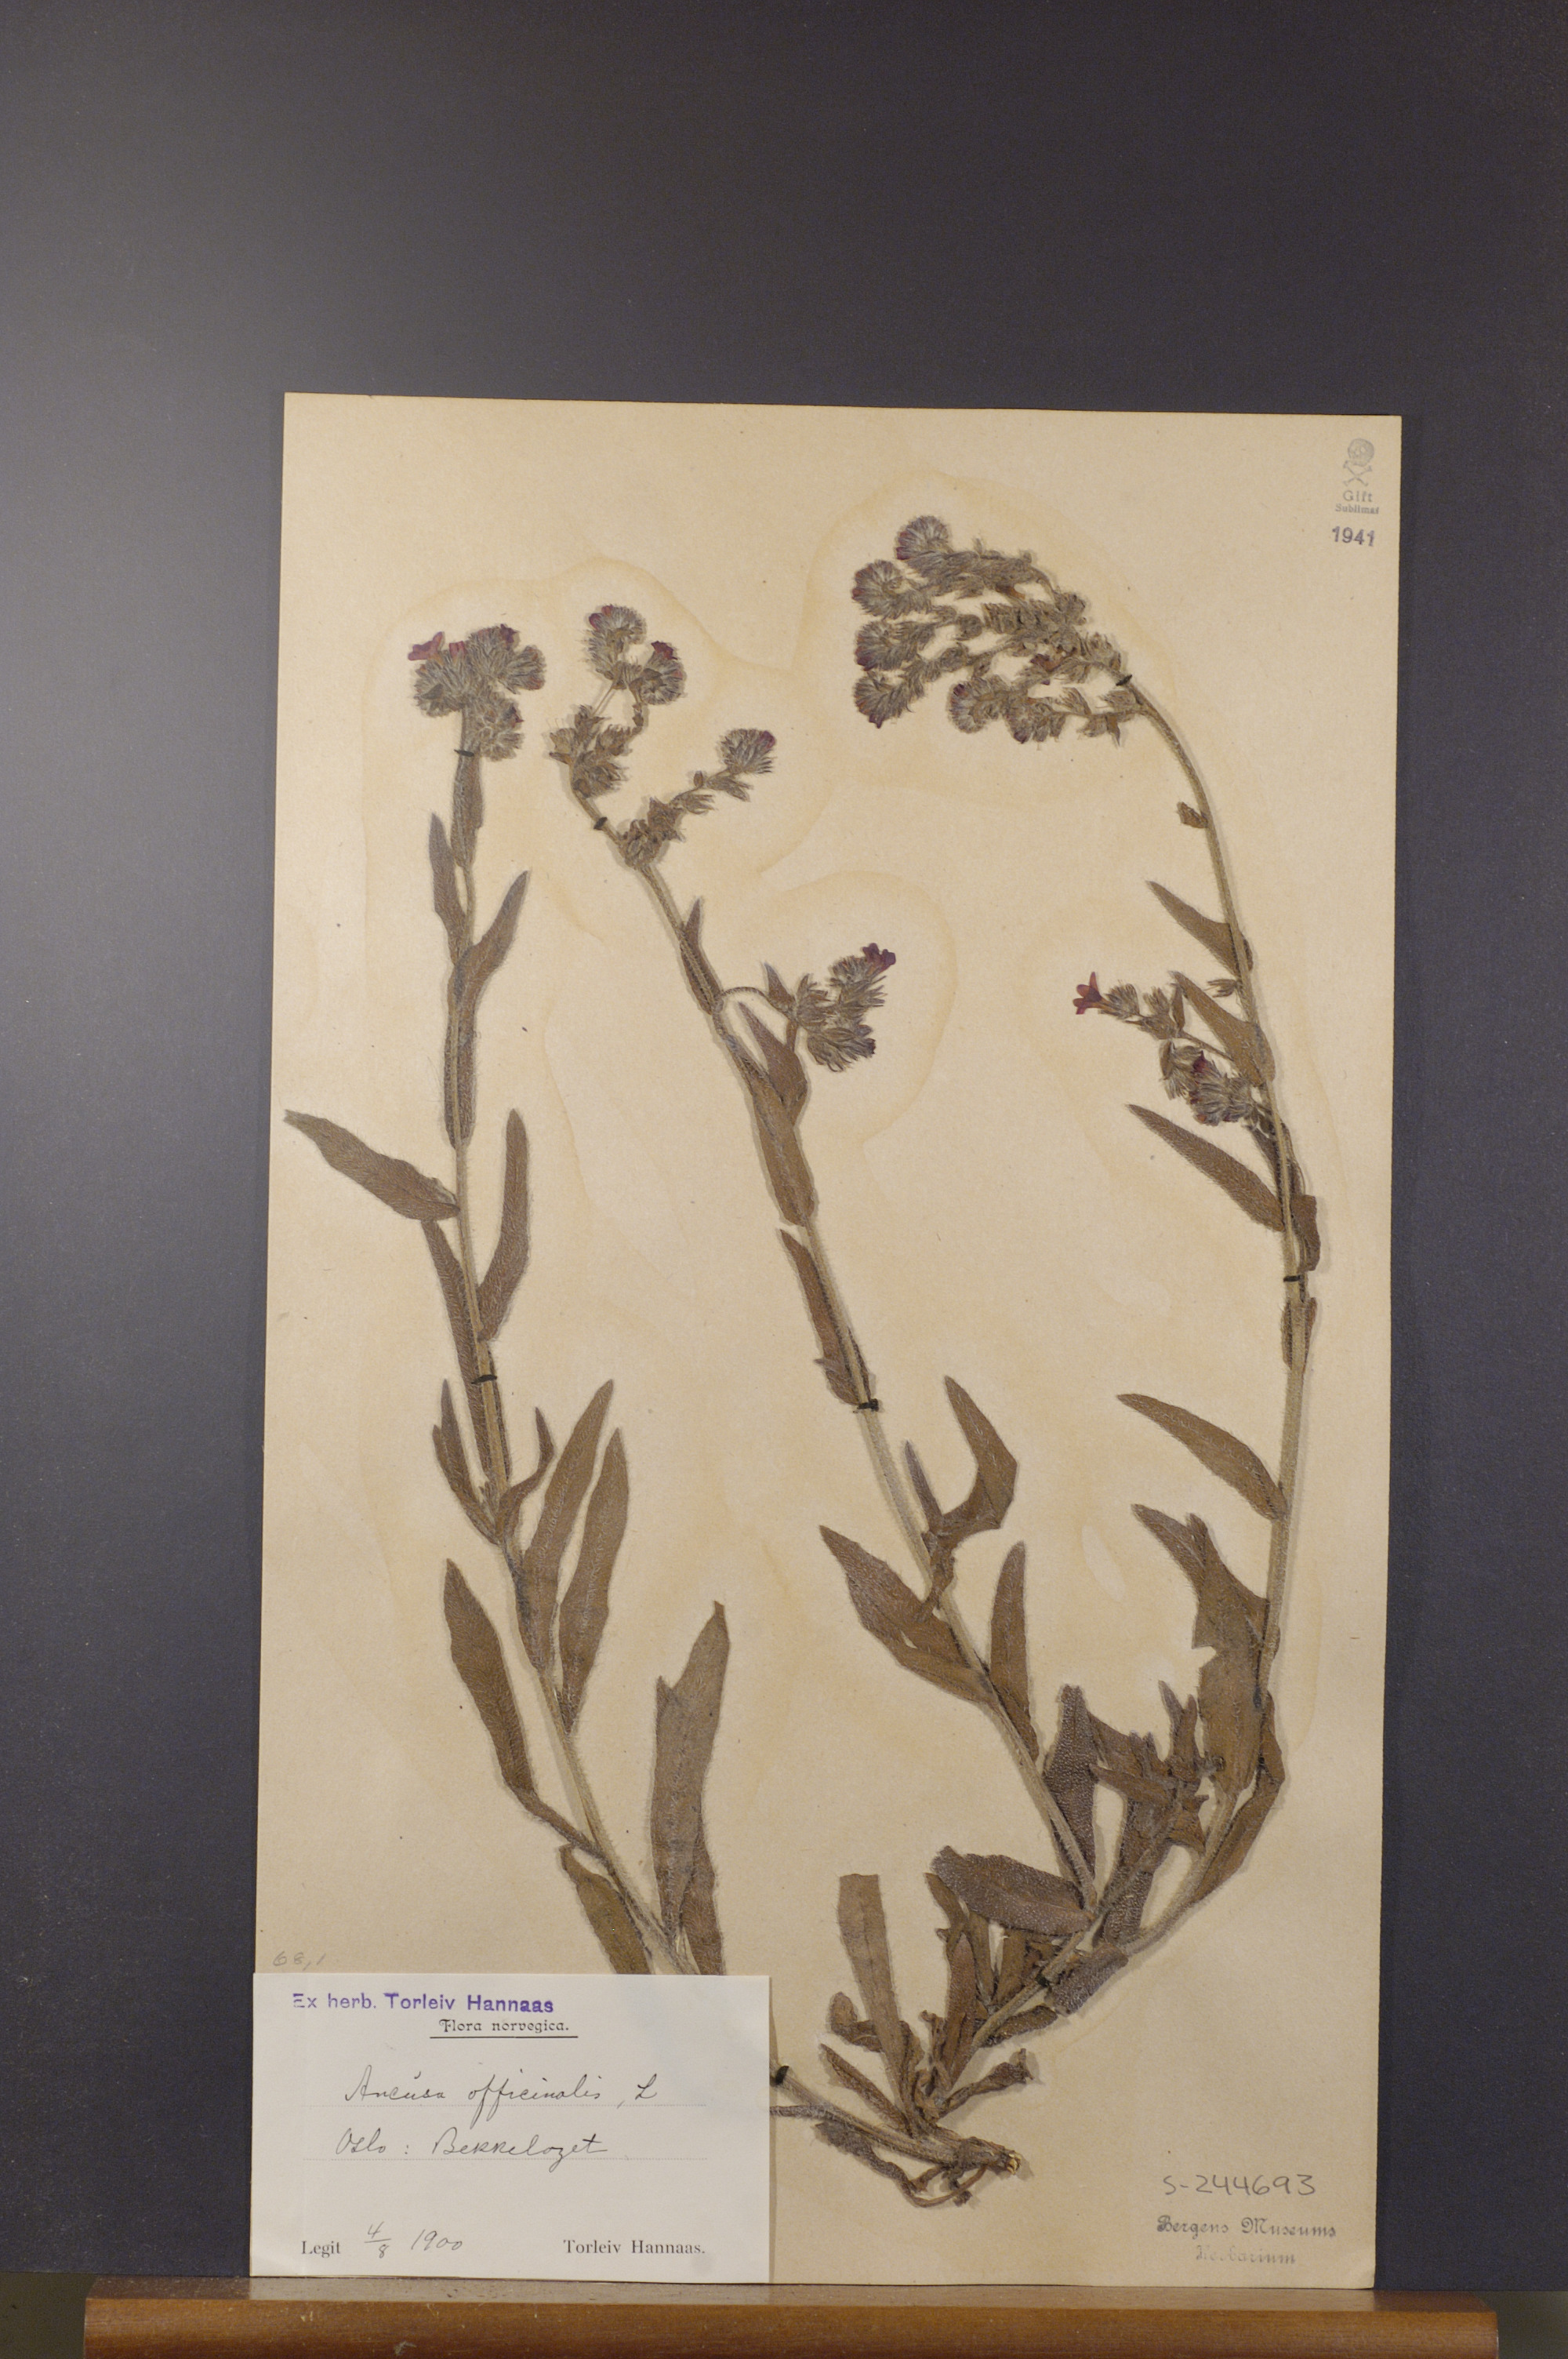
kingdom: Plantae
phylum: Tracheophyta
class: Magnoliopsida
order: Boraginales
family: Boraginaceae
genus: Anchusa
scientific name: Anchusa officinalis
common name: Alkanet
